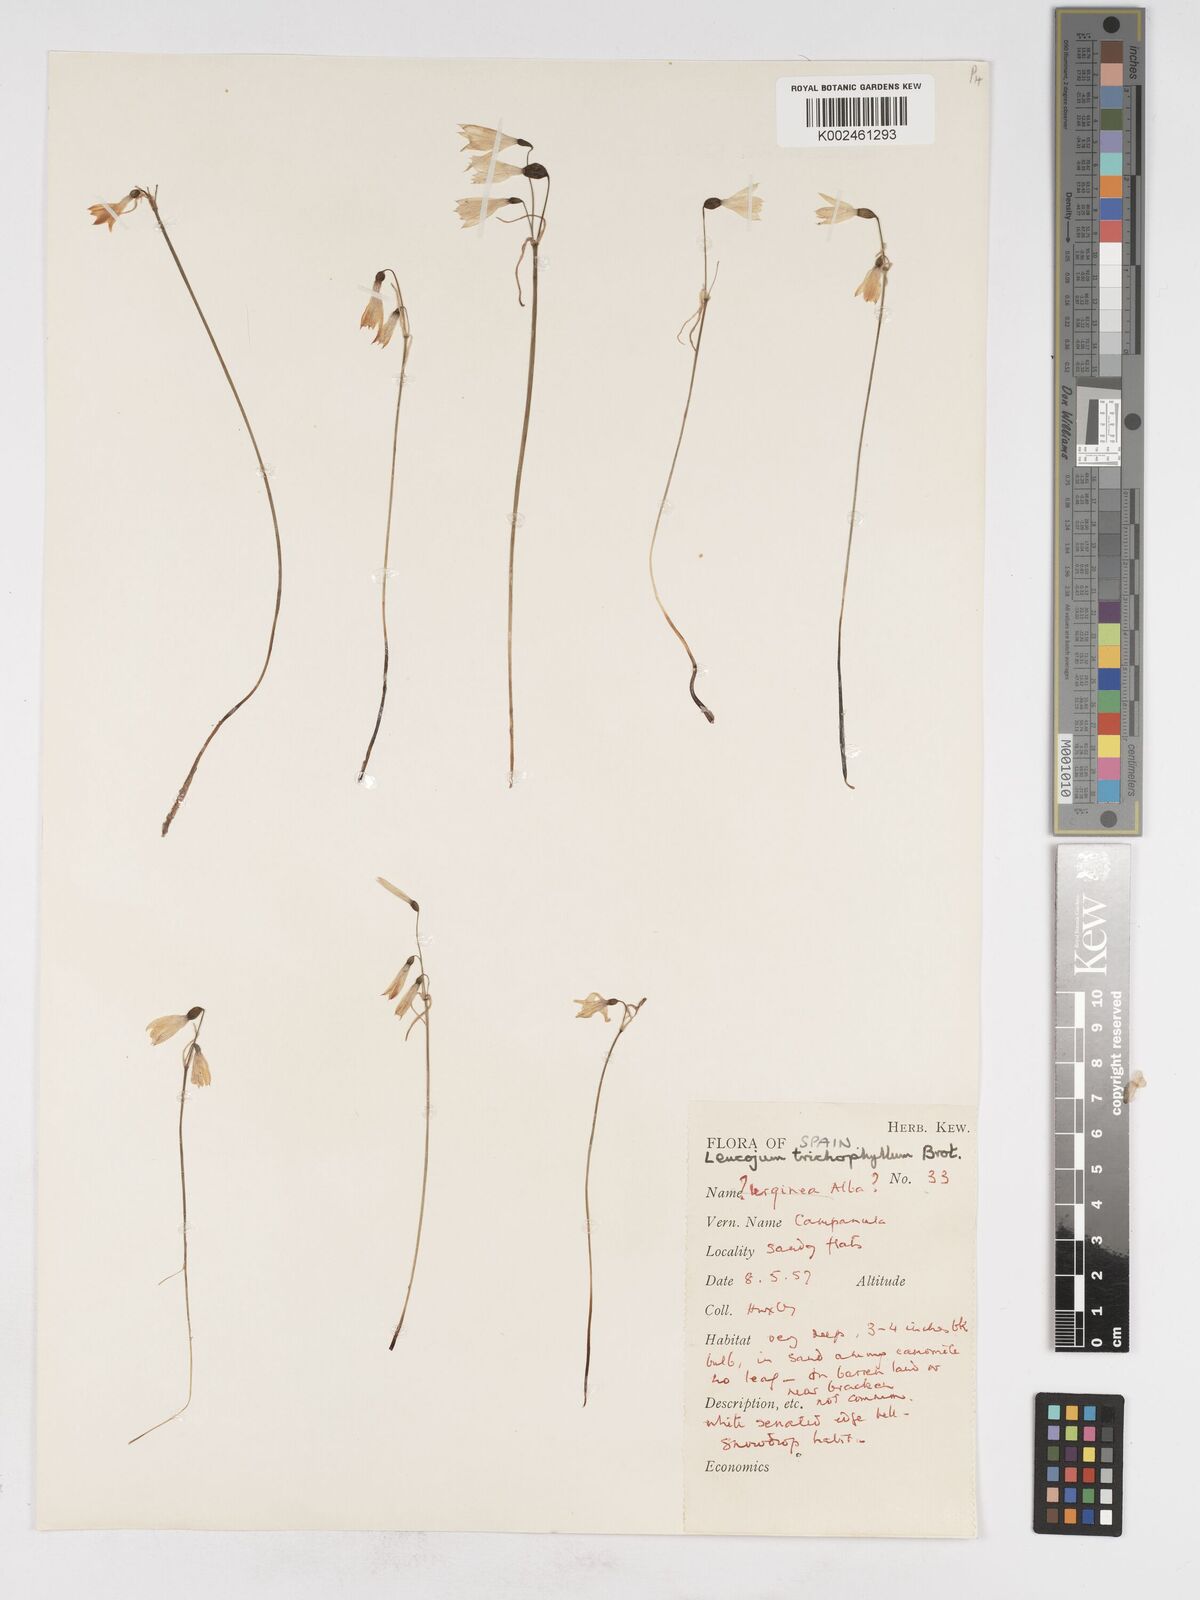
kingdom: Plantae
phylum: Tracheophyta
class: Liliopsida
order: Asparagales
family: Amaryllidaceae
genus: Acis
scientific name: Acis trichophylla
